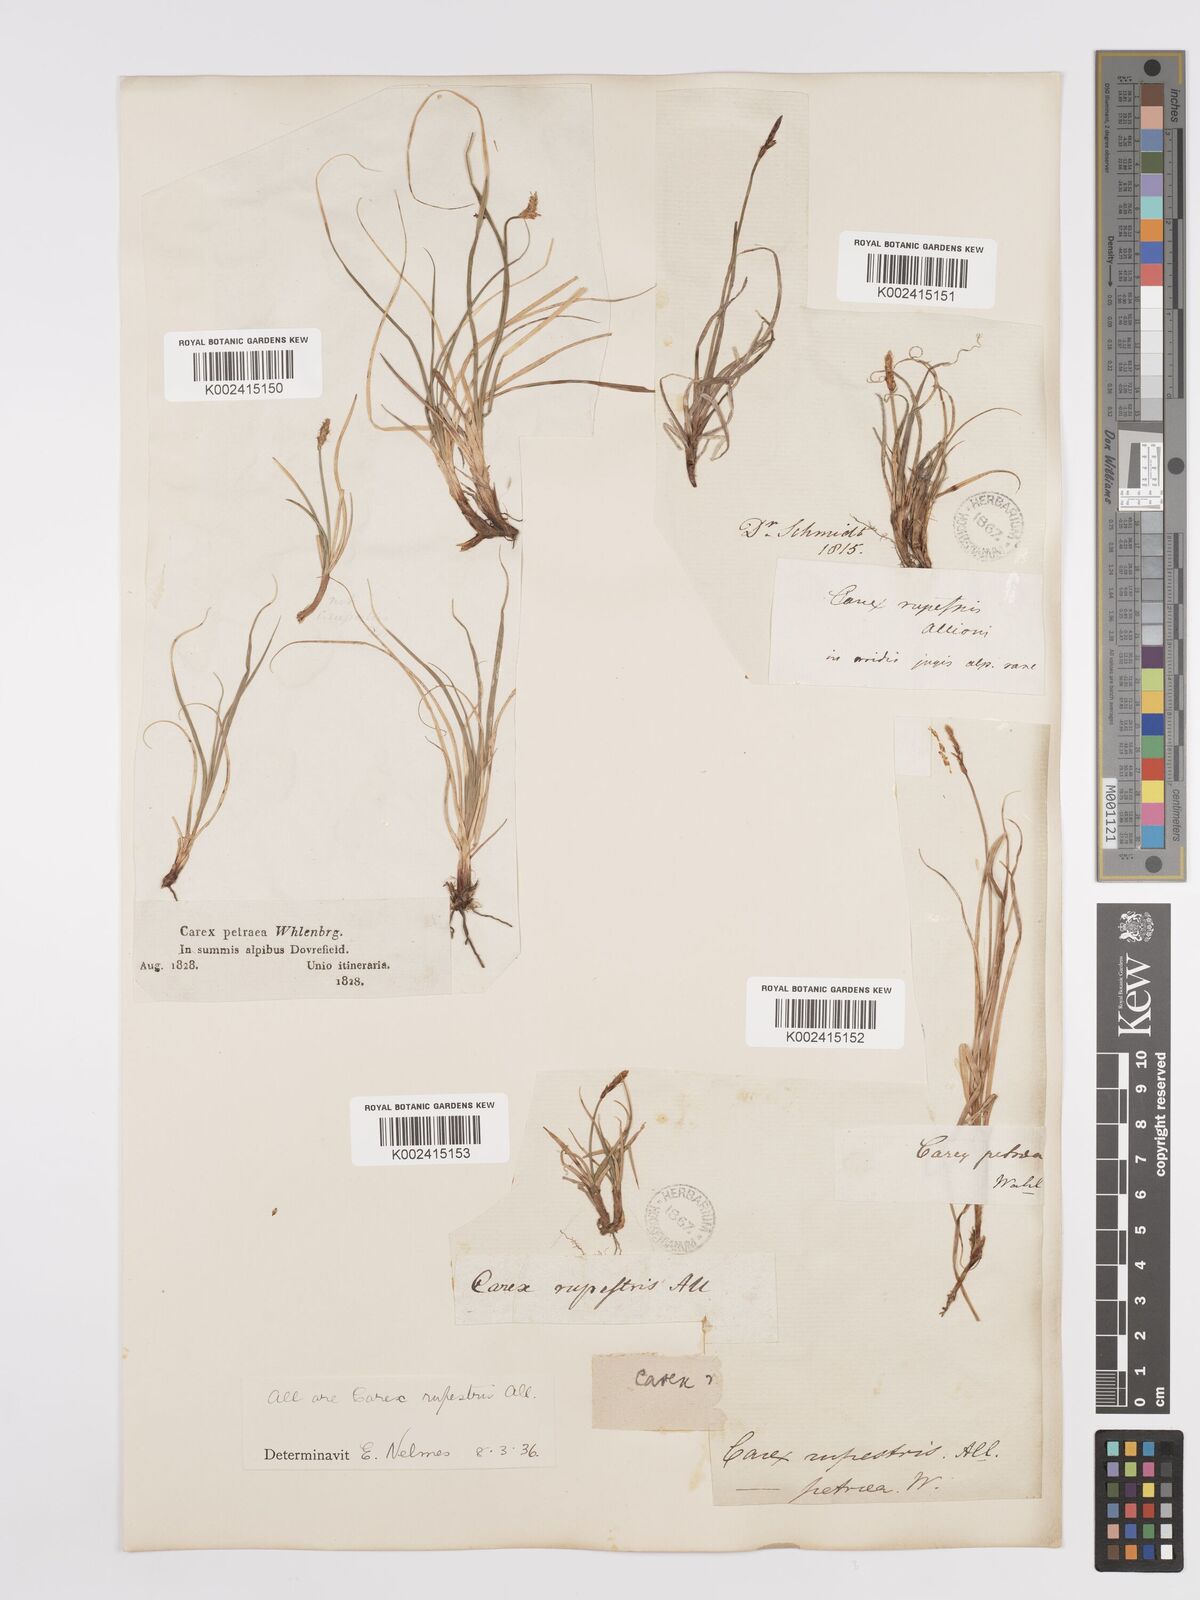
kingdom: Plantae
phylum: Tracheophyta
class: Liliopsida
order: Poales
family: Cyperaceae
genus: Carex
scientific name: Carex rupestris
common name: Rock sedge
